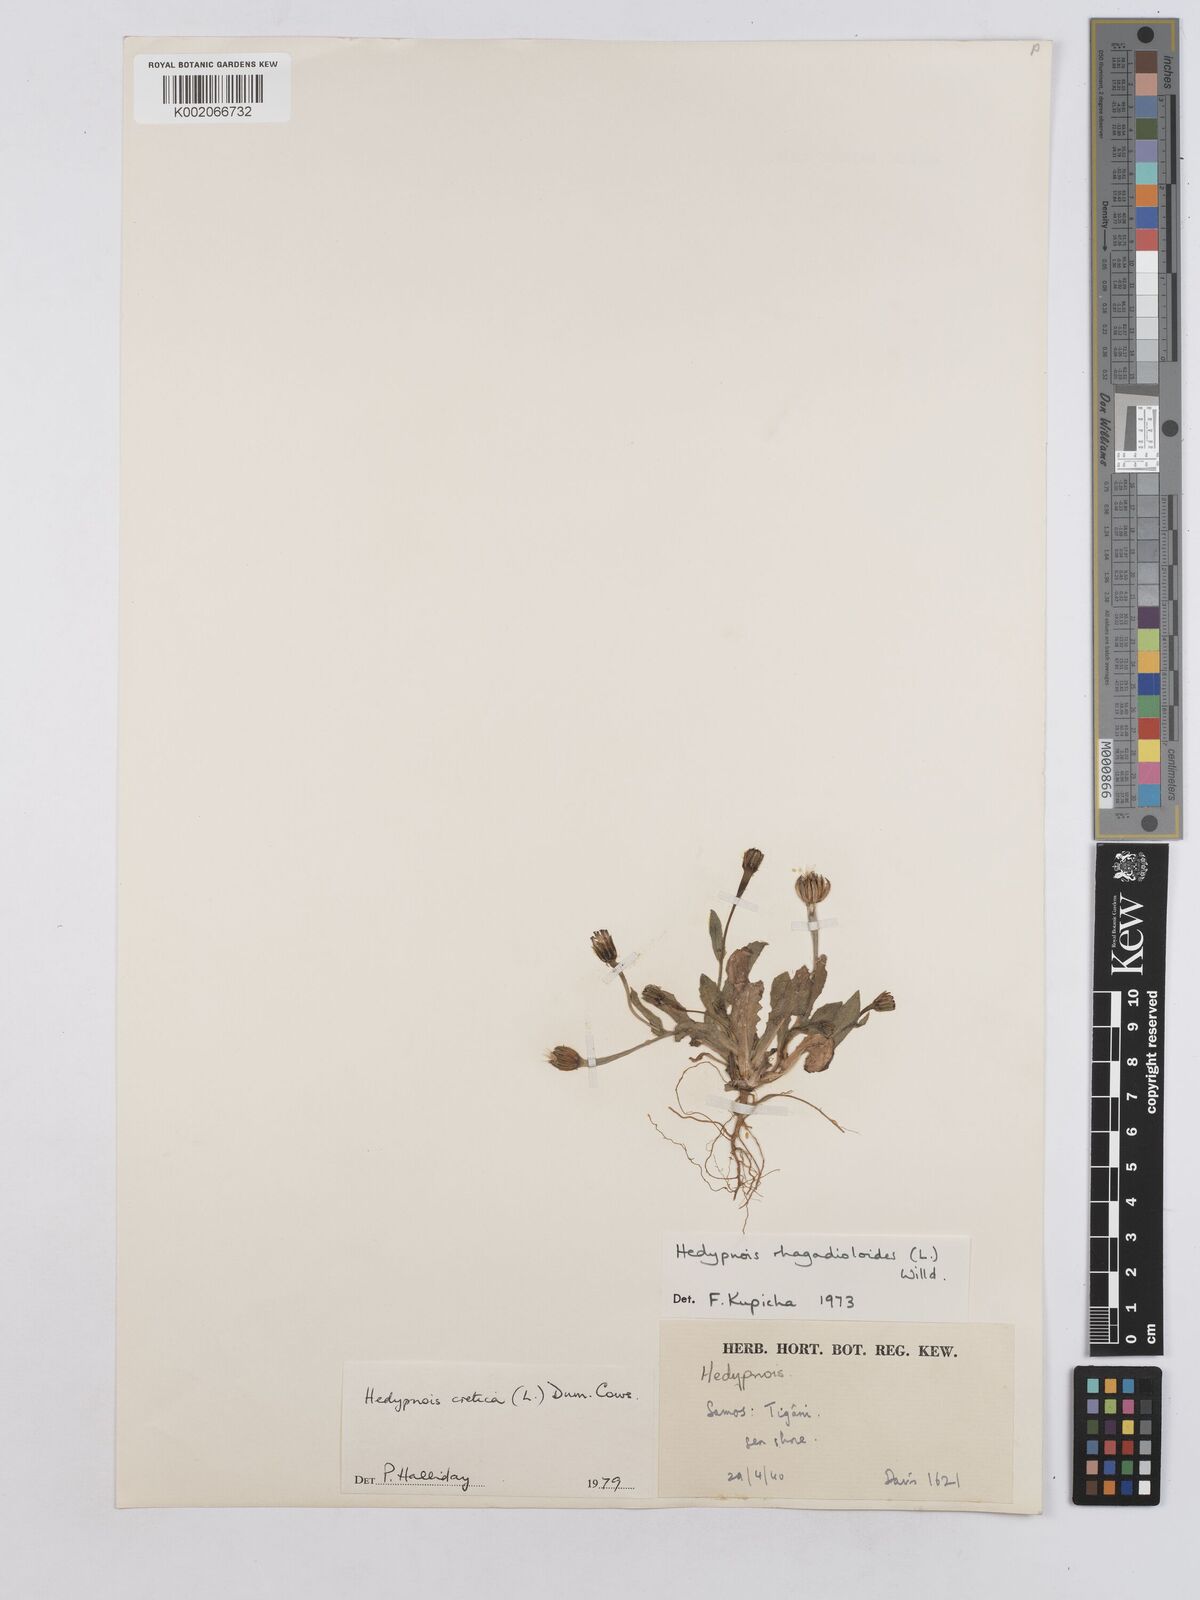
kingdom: Plantae
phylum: Tracheophyta
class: Magnoliopsida
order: Asterales
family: Asteraceae
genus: Hedypnois
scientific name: Hedypnois cretica
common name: Scaly hawkbit
